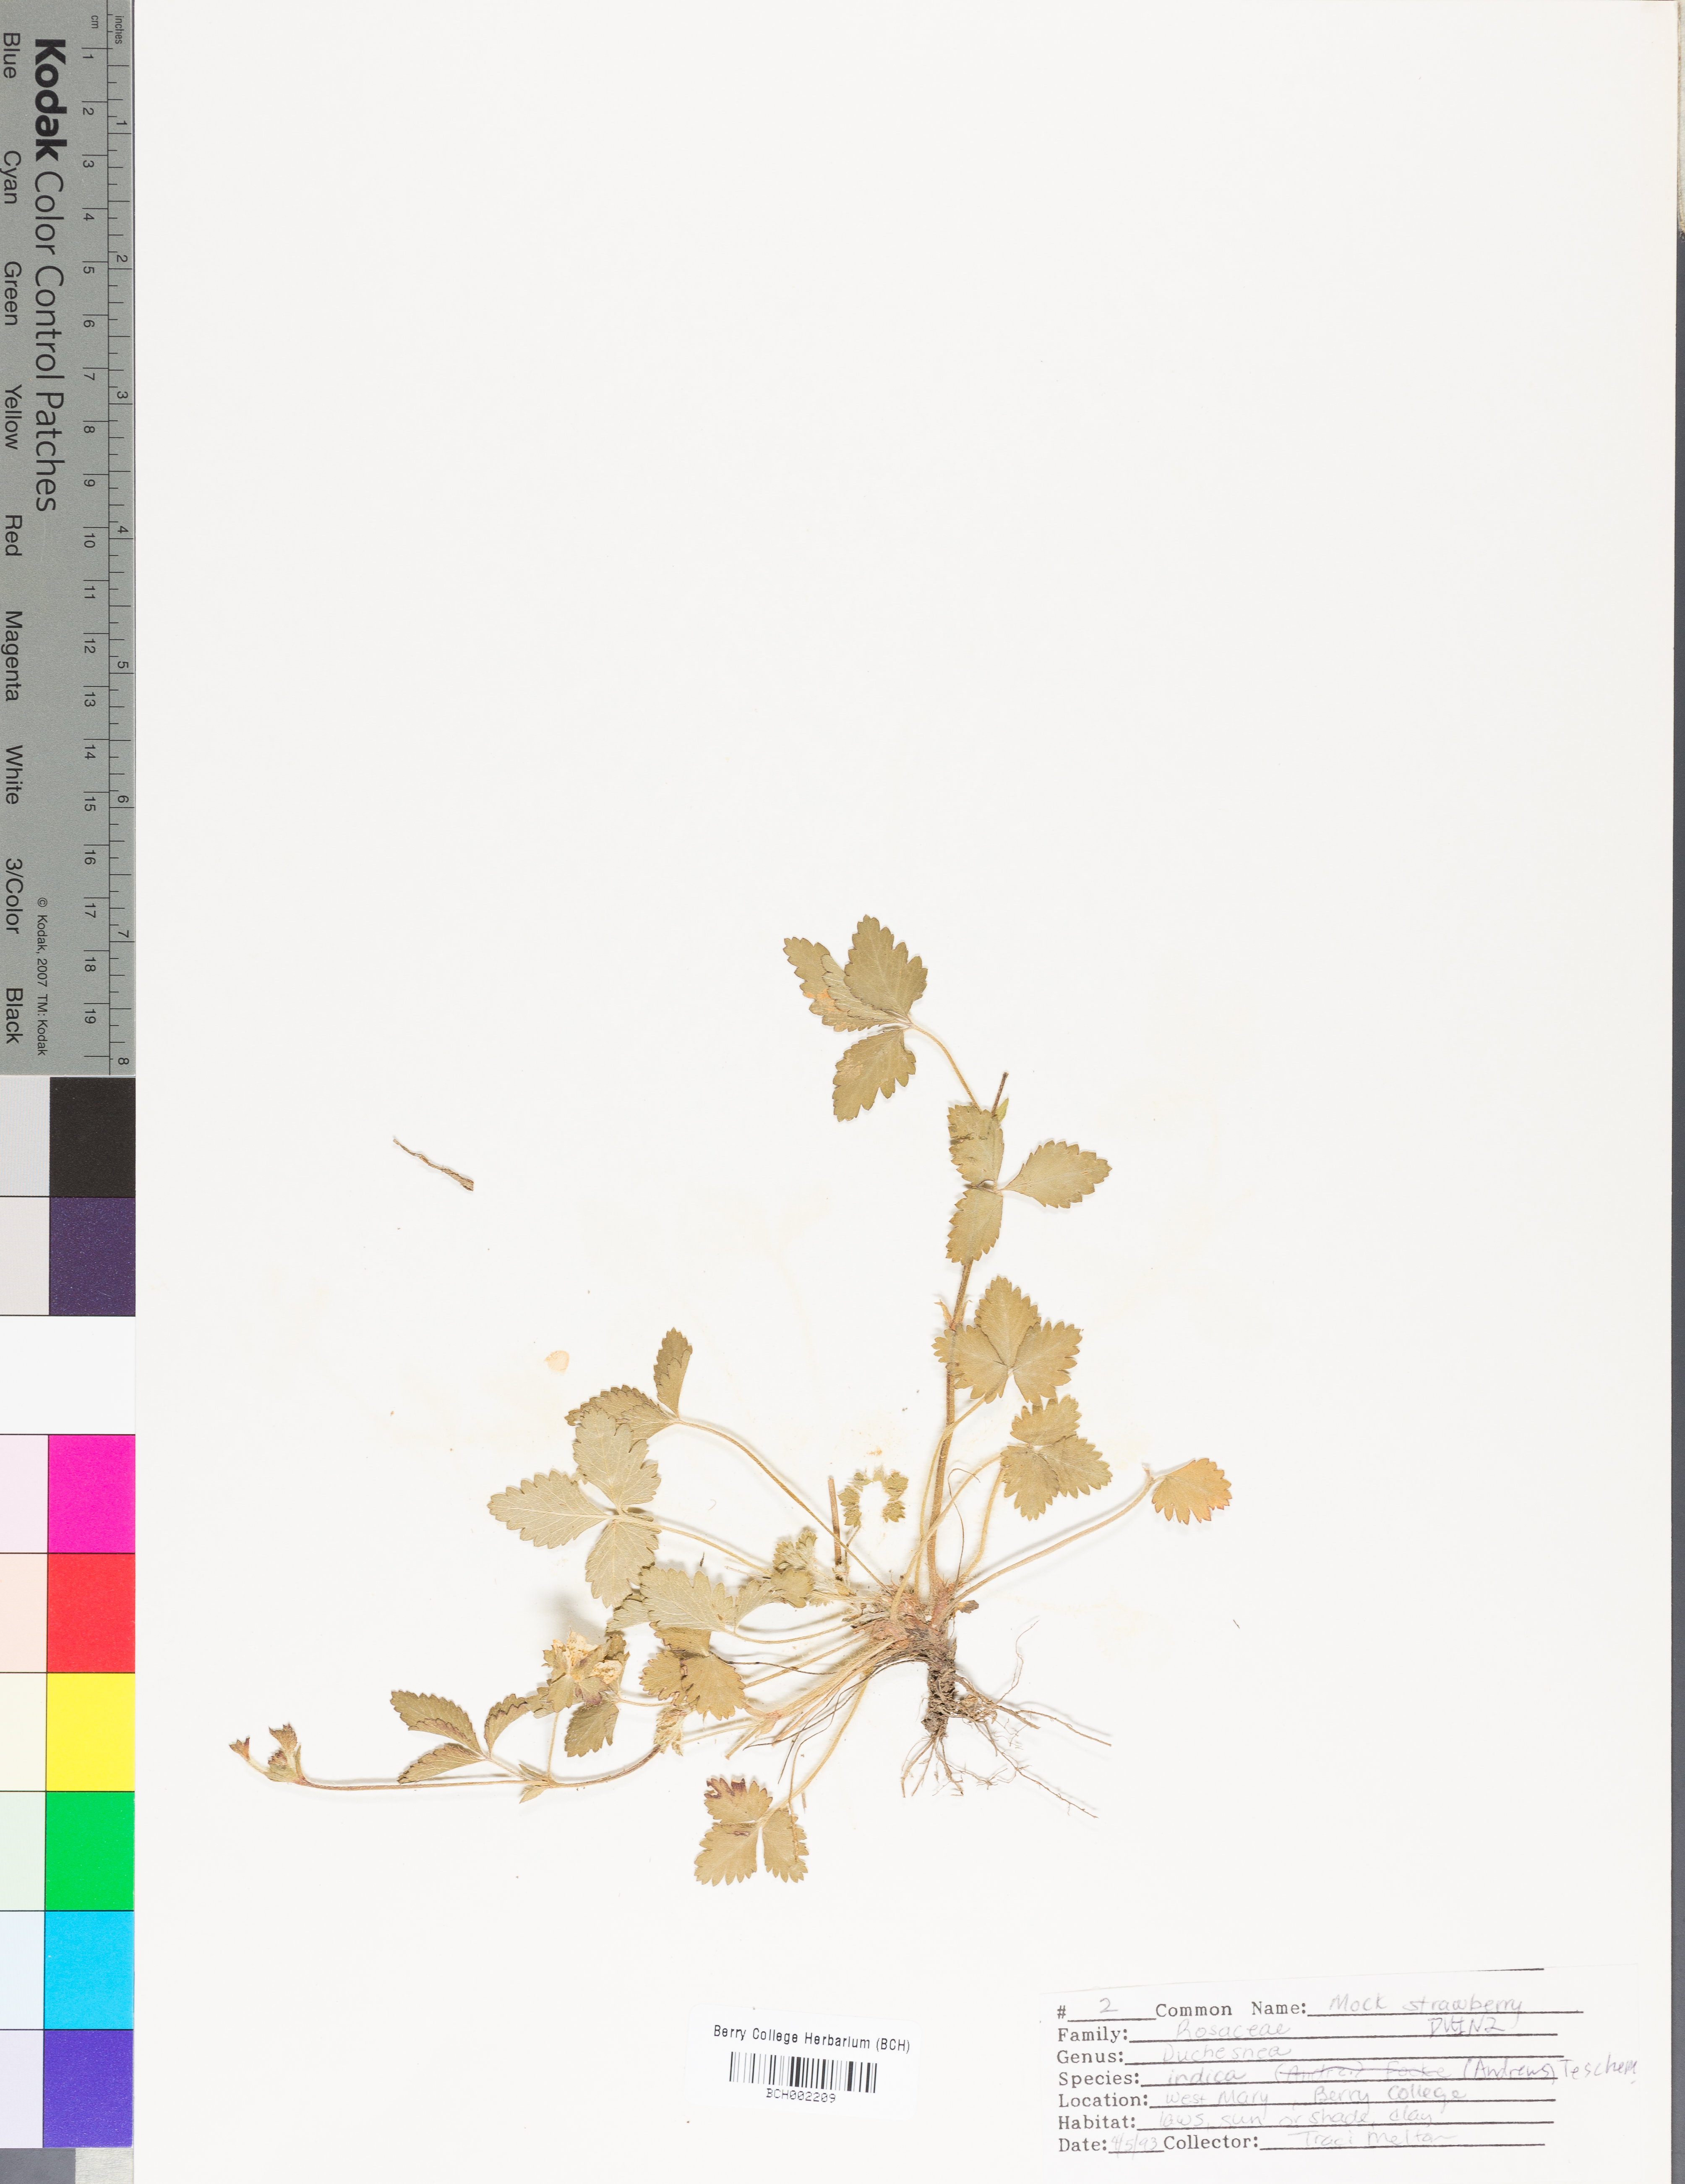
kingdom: Plantae
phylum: Tracheophyta
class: Magnoliopsida
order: Rosales
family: Rosaceae
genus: Potentilla
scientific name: Potentilla indica
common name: Yellow-flowered strawberry
